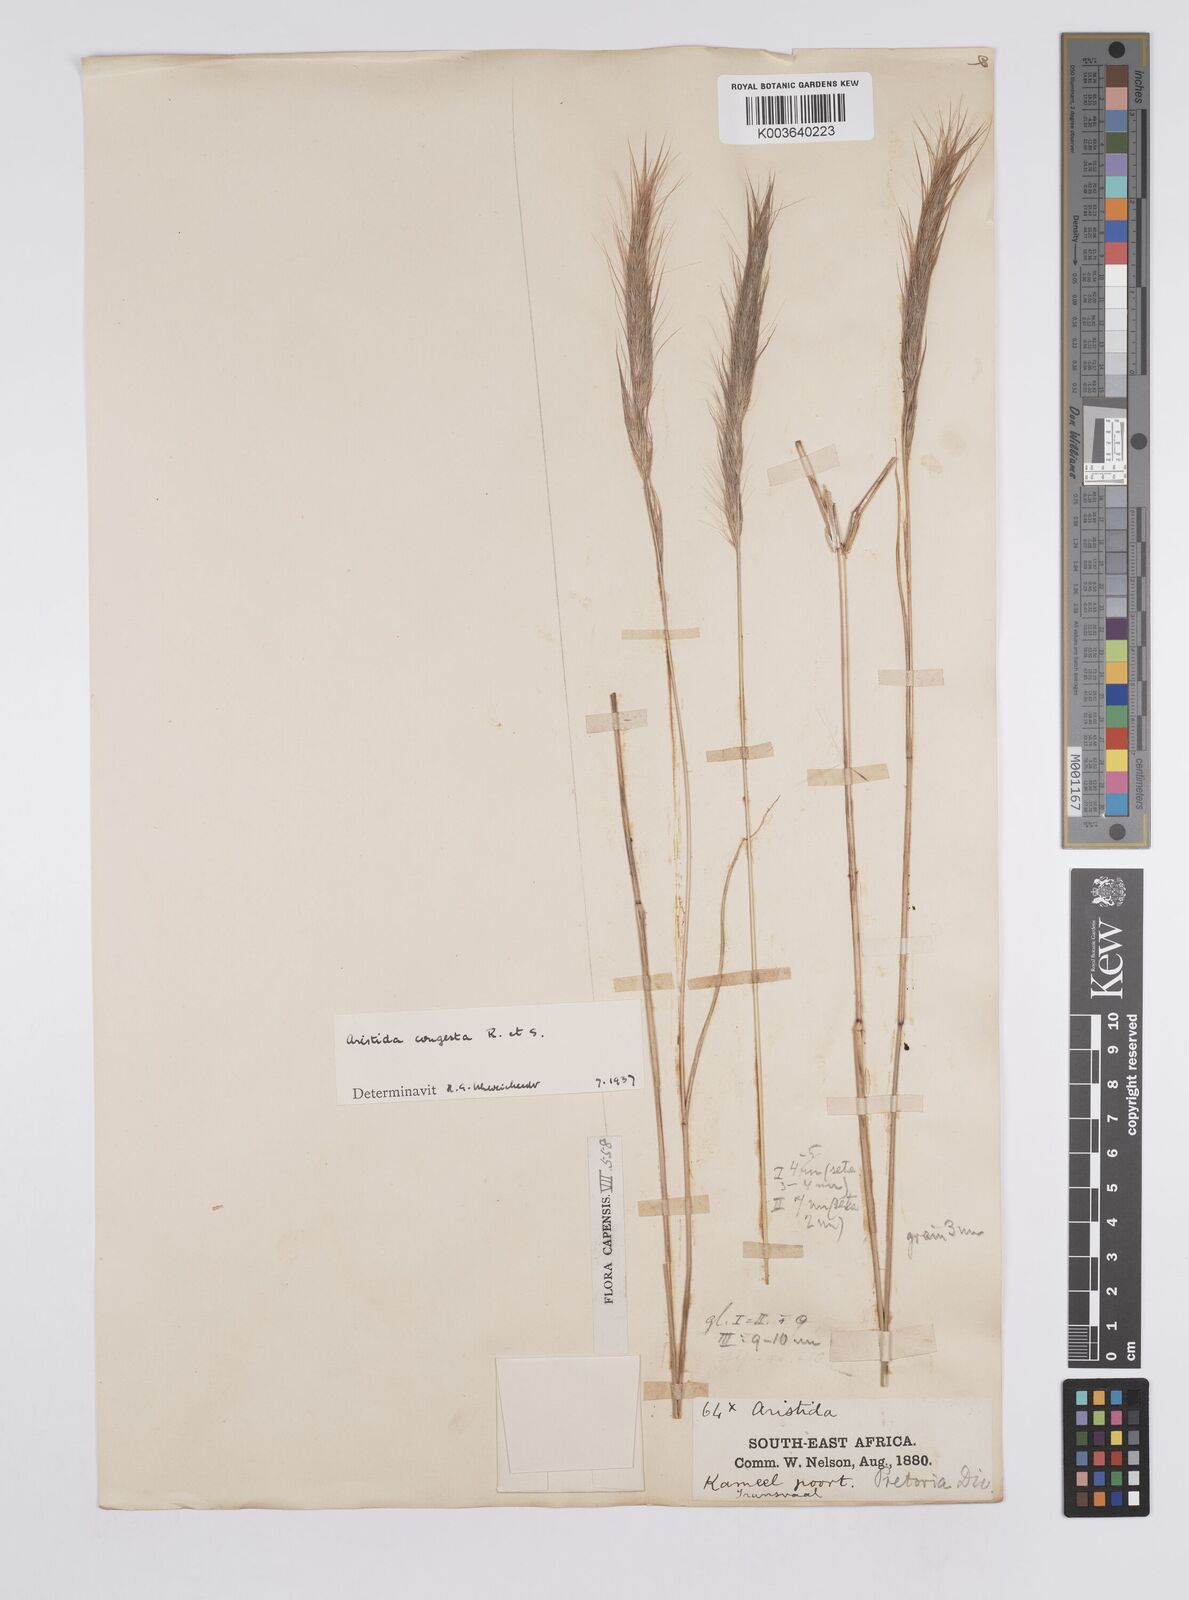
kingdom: Plantae
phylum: Tracheophyta
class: Liliopsida
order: Poales
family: Poaceae
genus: Aristida
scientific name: Aristida congesta
